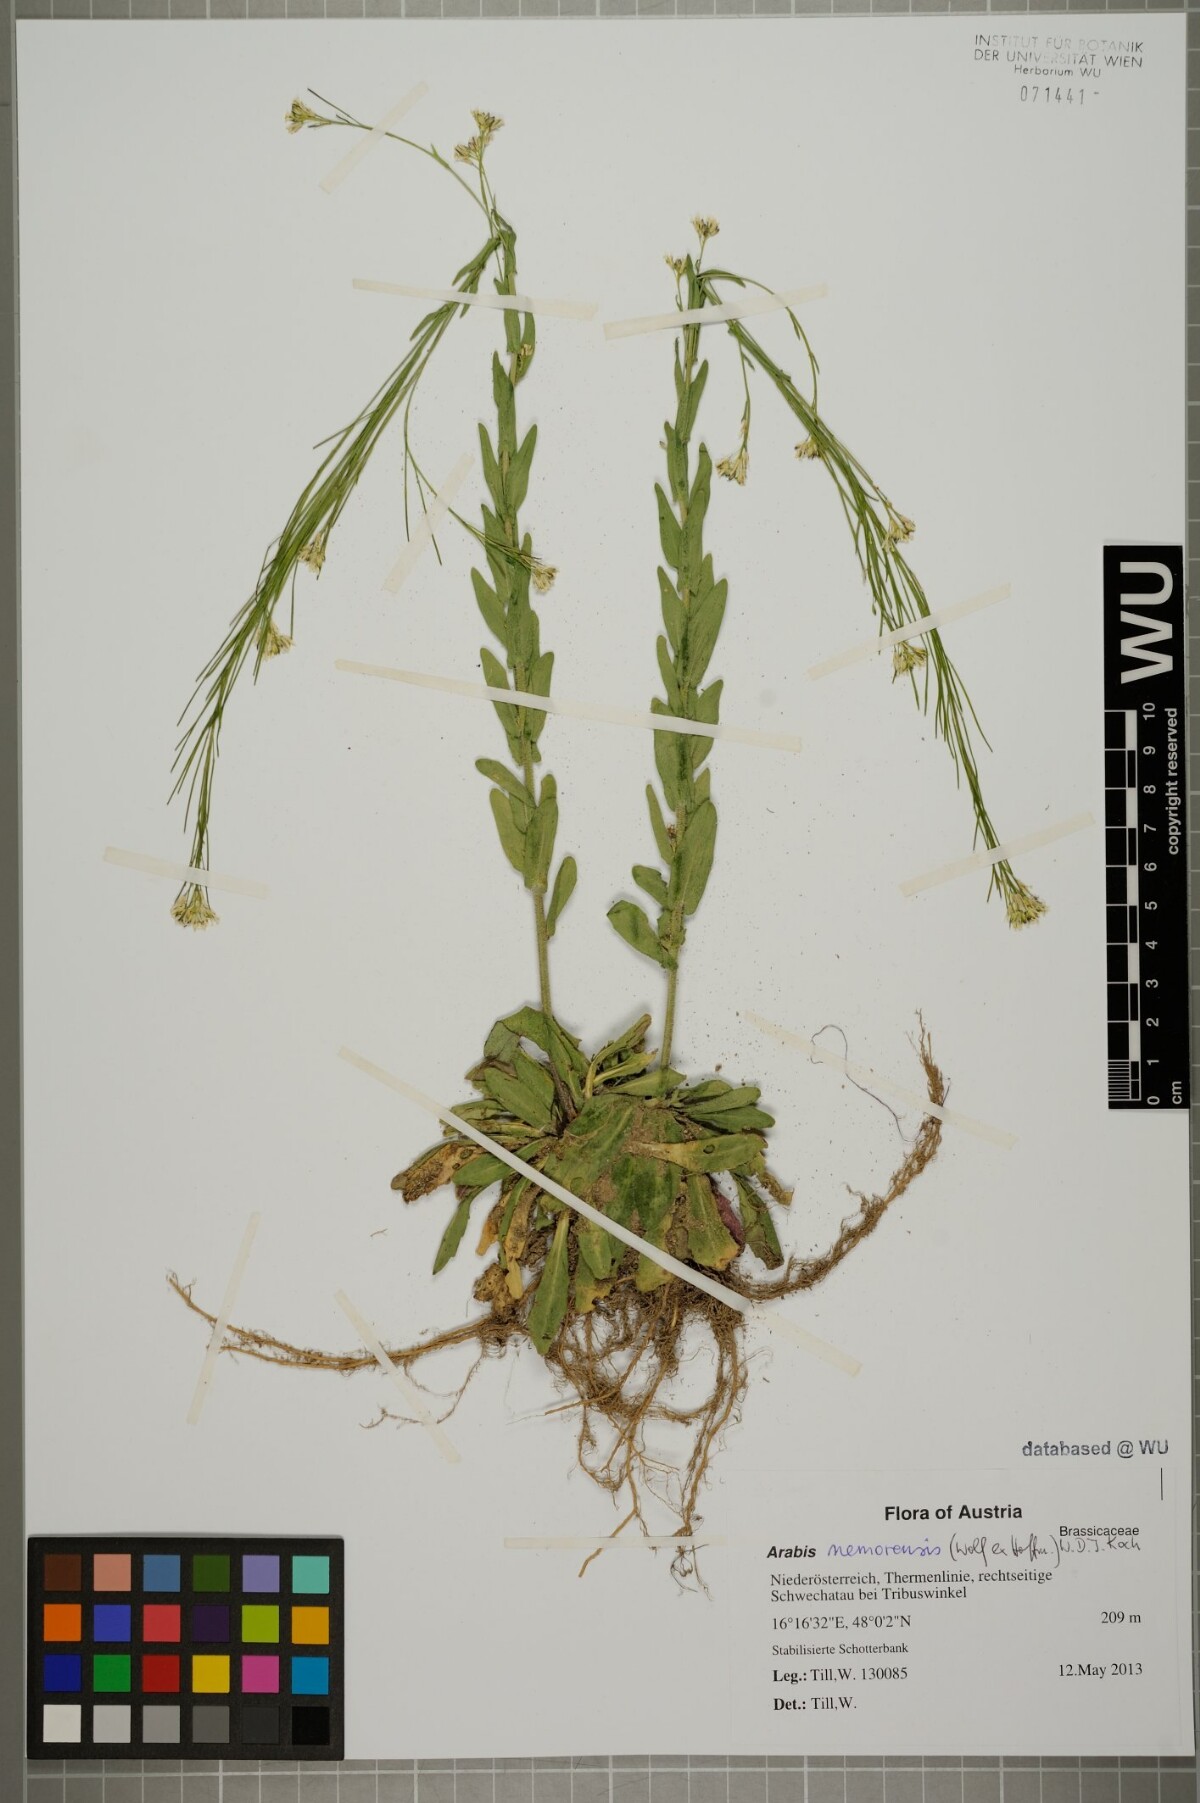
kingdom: Plantae
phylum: Tracheophyta
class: Magnoliopsida
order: Brassicales
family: Brassicaceae
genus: Arabis
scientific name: Arabis sagittata
